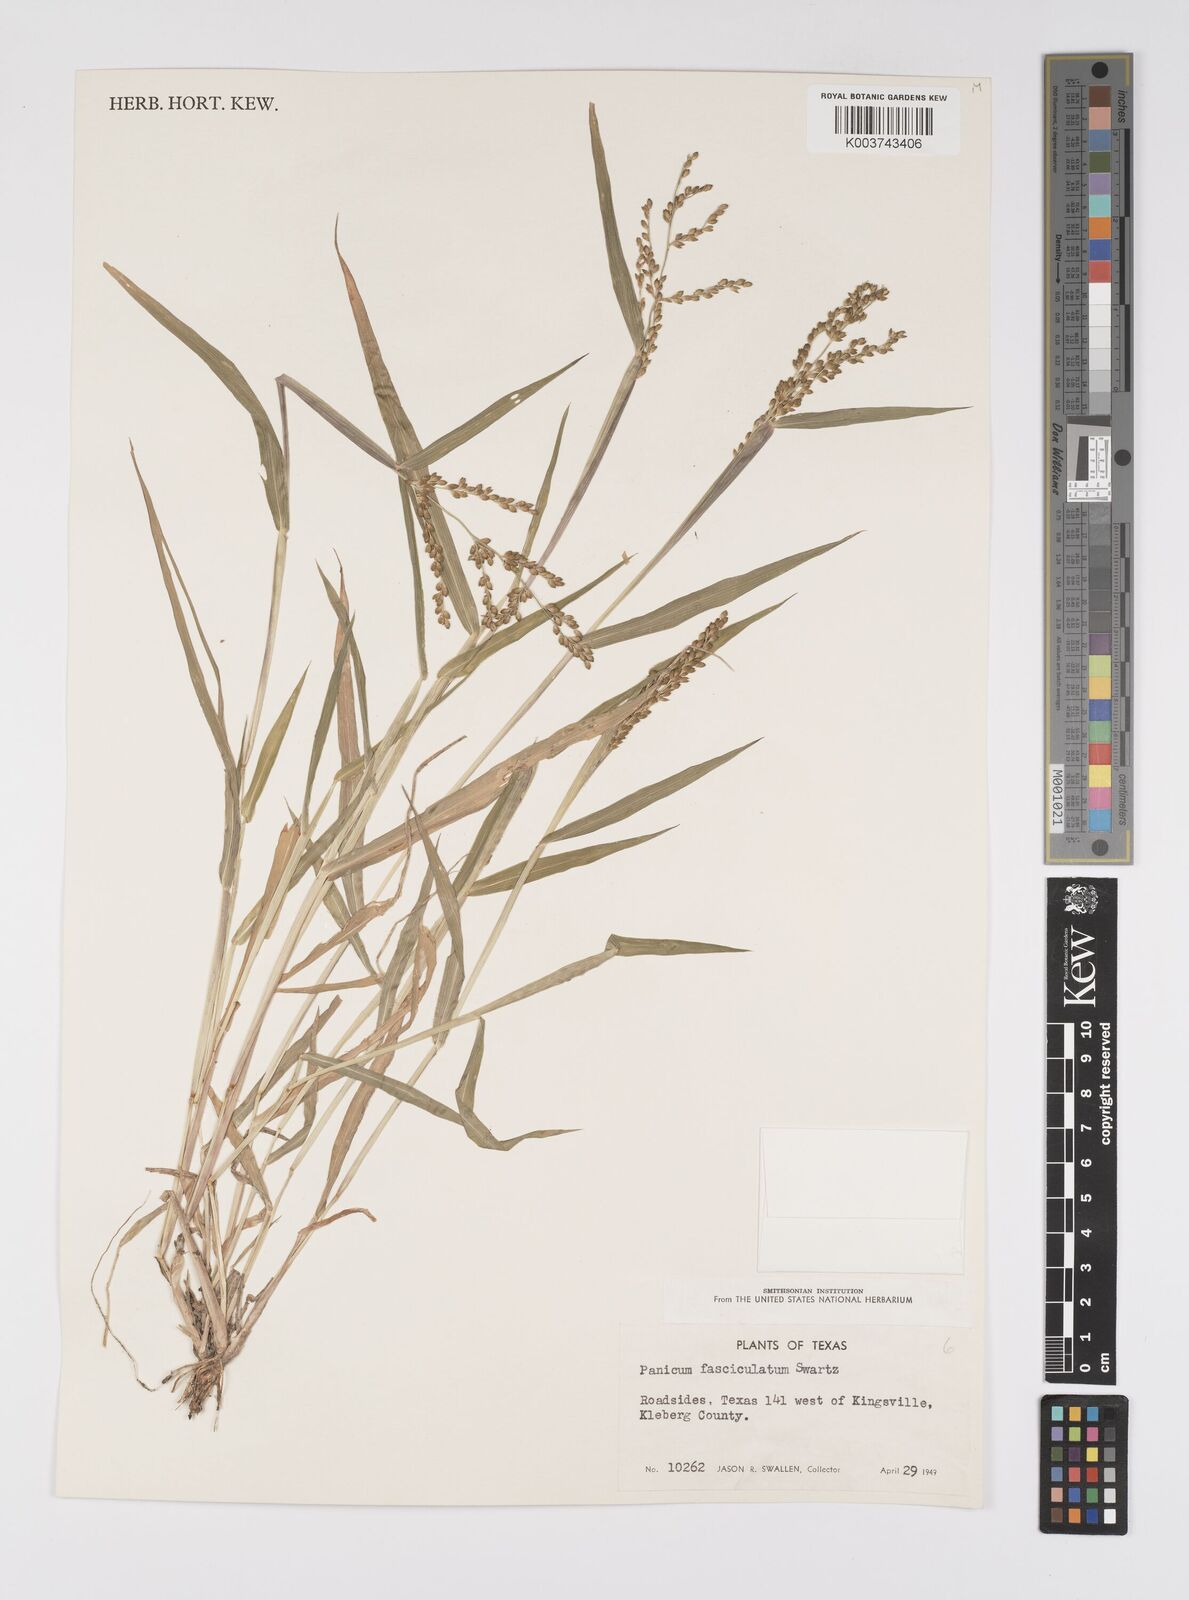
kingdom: Plantae
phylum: Tracheophyta
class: Liliopsida
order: Poales
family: Poaceae
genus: Urochloa
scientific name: Urochloa fusca
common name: Browntop signal grass
